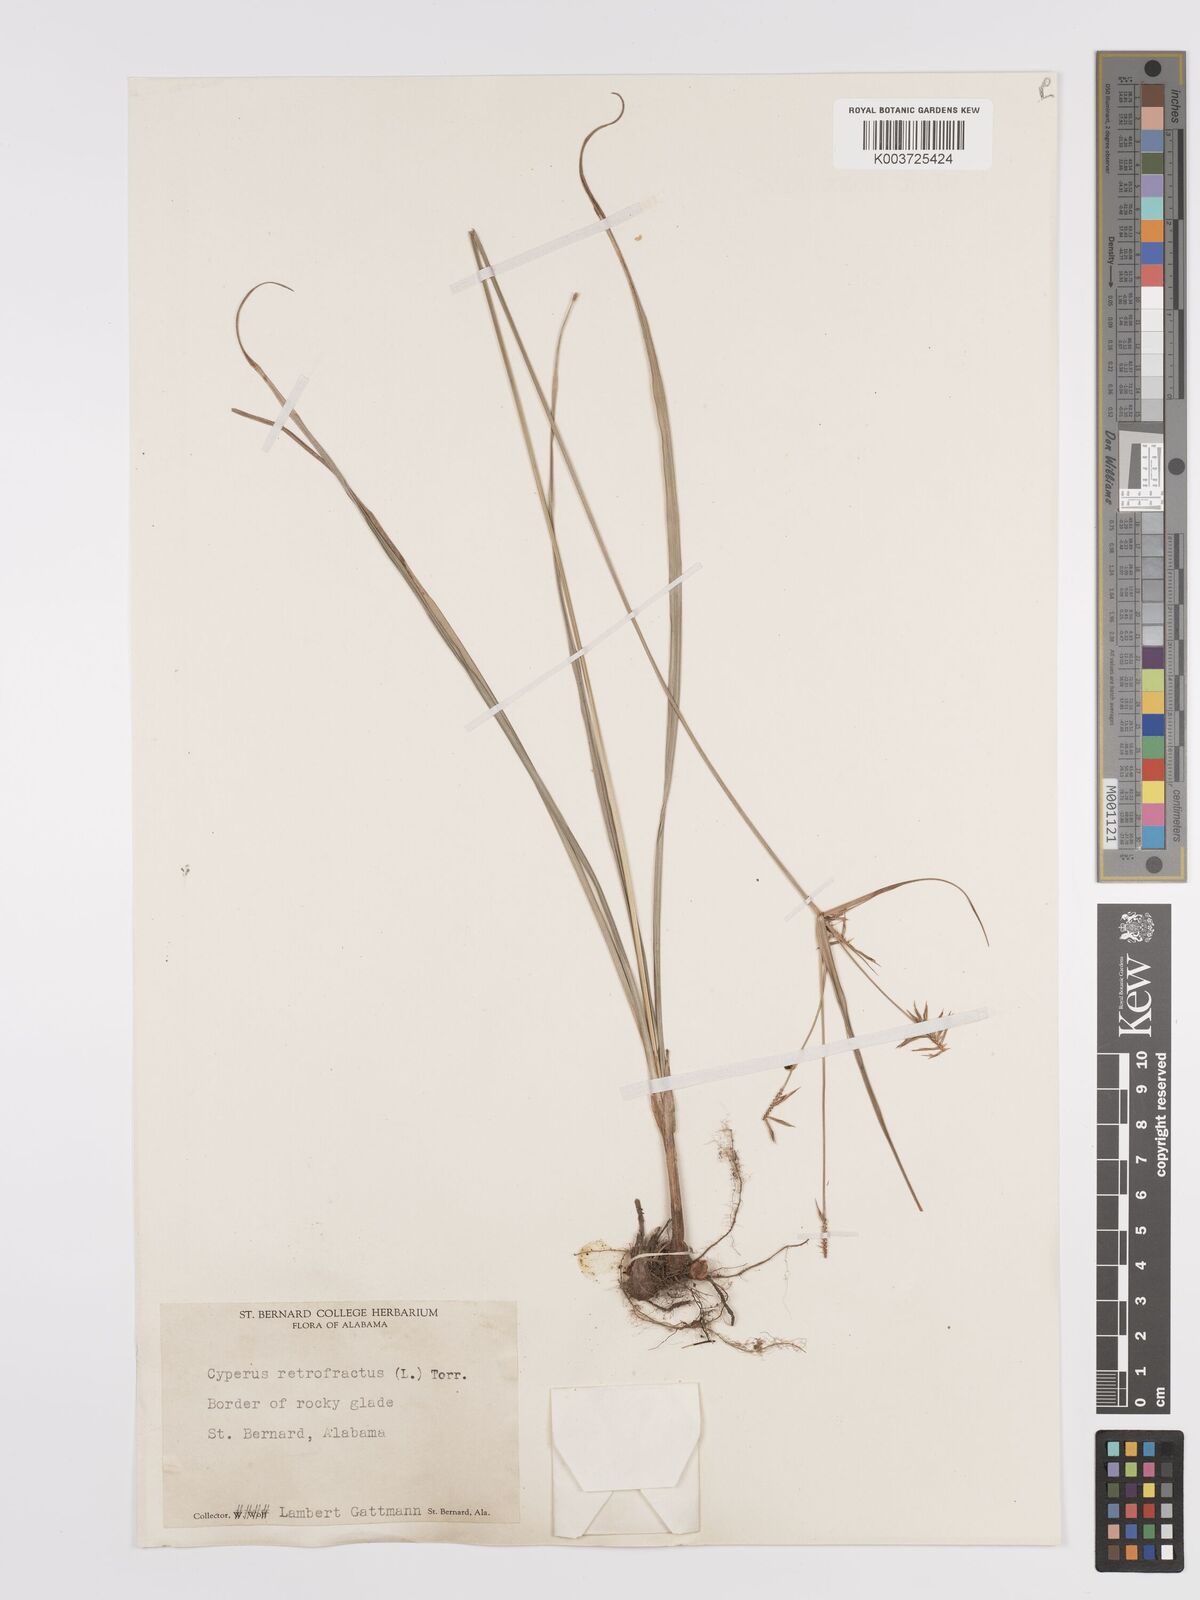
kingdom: Plantae
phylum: Tracheophyta
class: Liliopsida
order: Poales
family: Cyperaceae
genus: Cyperus
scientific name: Cyperus retrofractus
